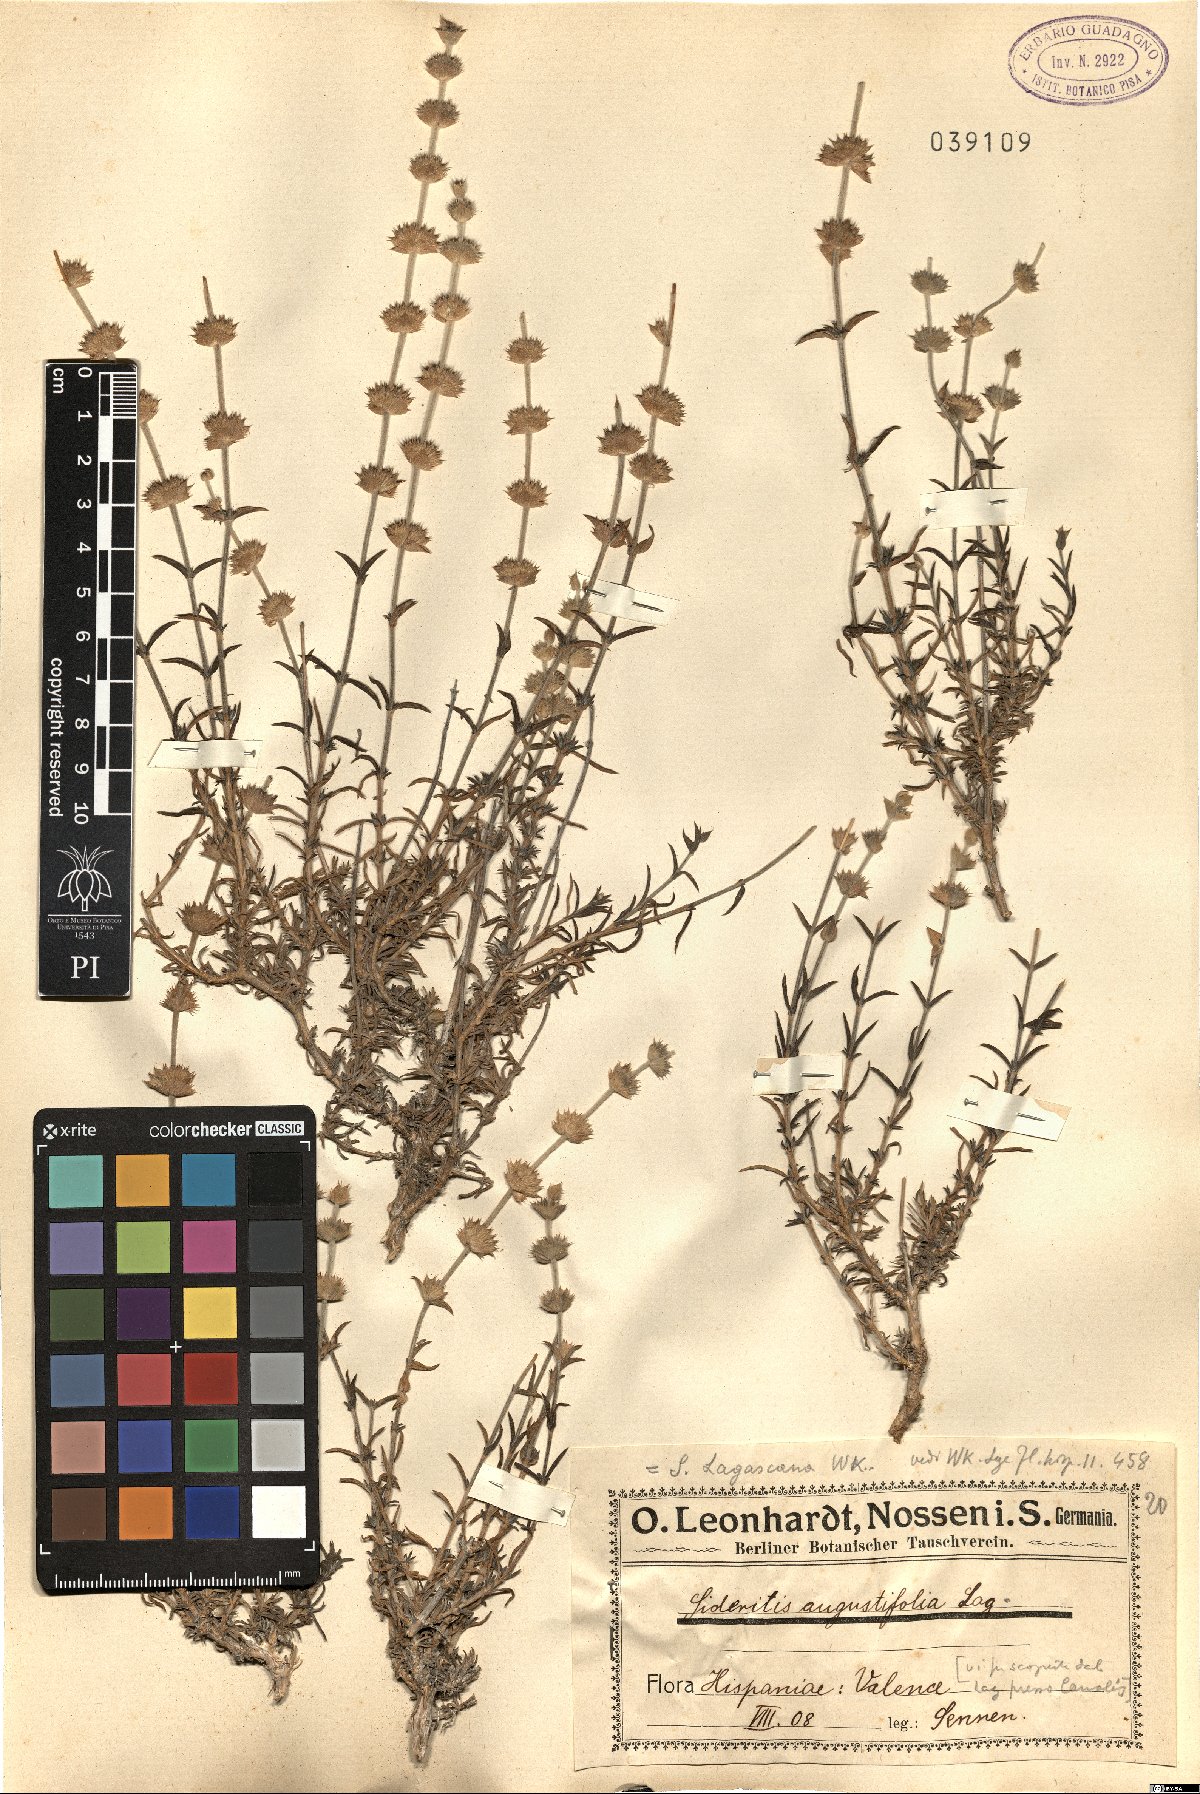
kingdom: Plantae
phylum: Tracheophyta
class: Magnoliopsida
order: Lamiales
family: Lamiaceae
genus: Sideritis
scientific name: Sideritis tragoriganum
